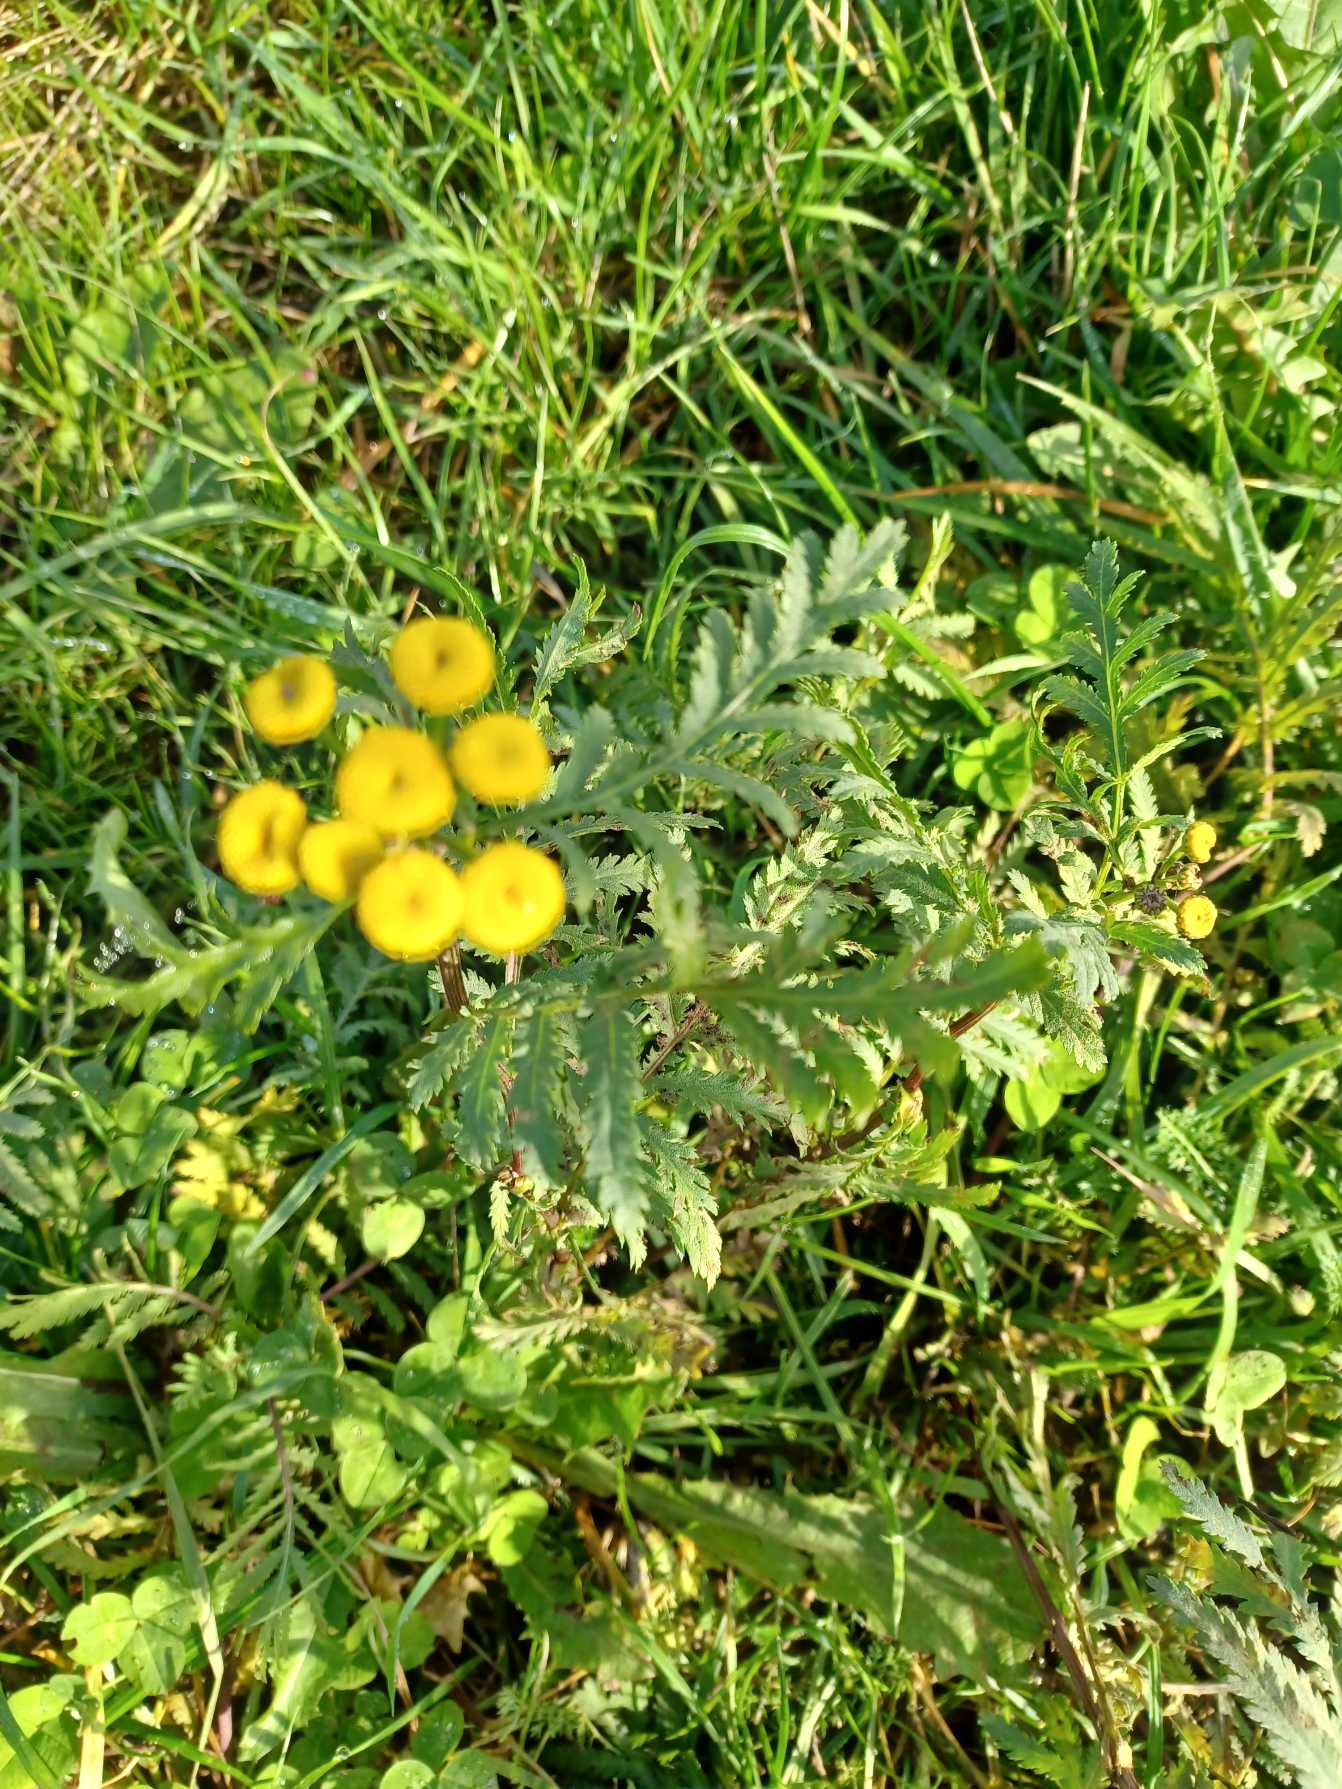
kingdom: Plantae
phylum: Tracheophyta
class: Magnoliopsida
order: Asterales
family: Asteraceae
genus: Tanacetum
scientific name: Tanacetum vulgare
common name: Rejnfan
